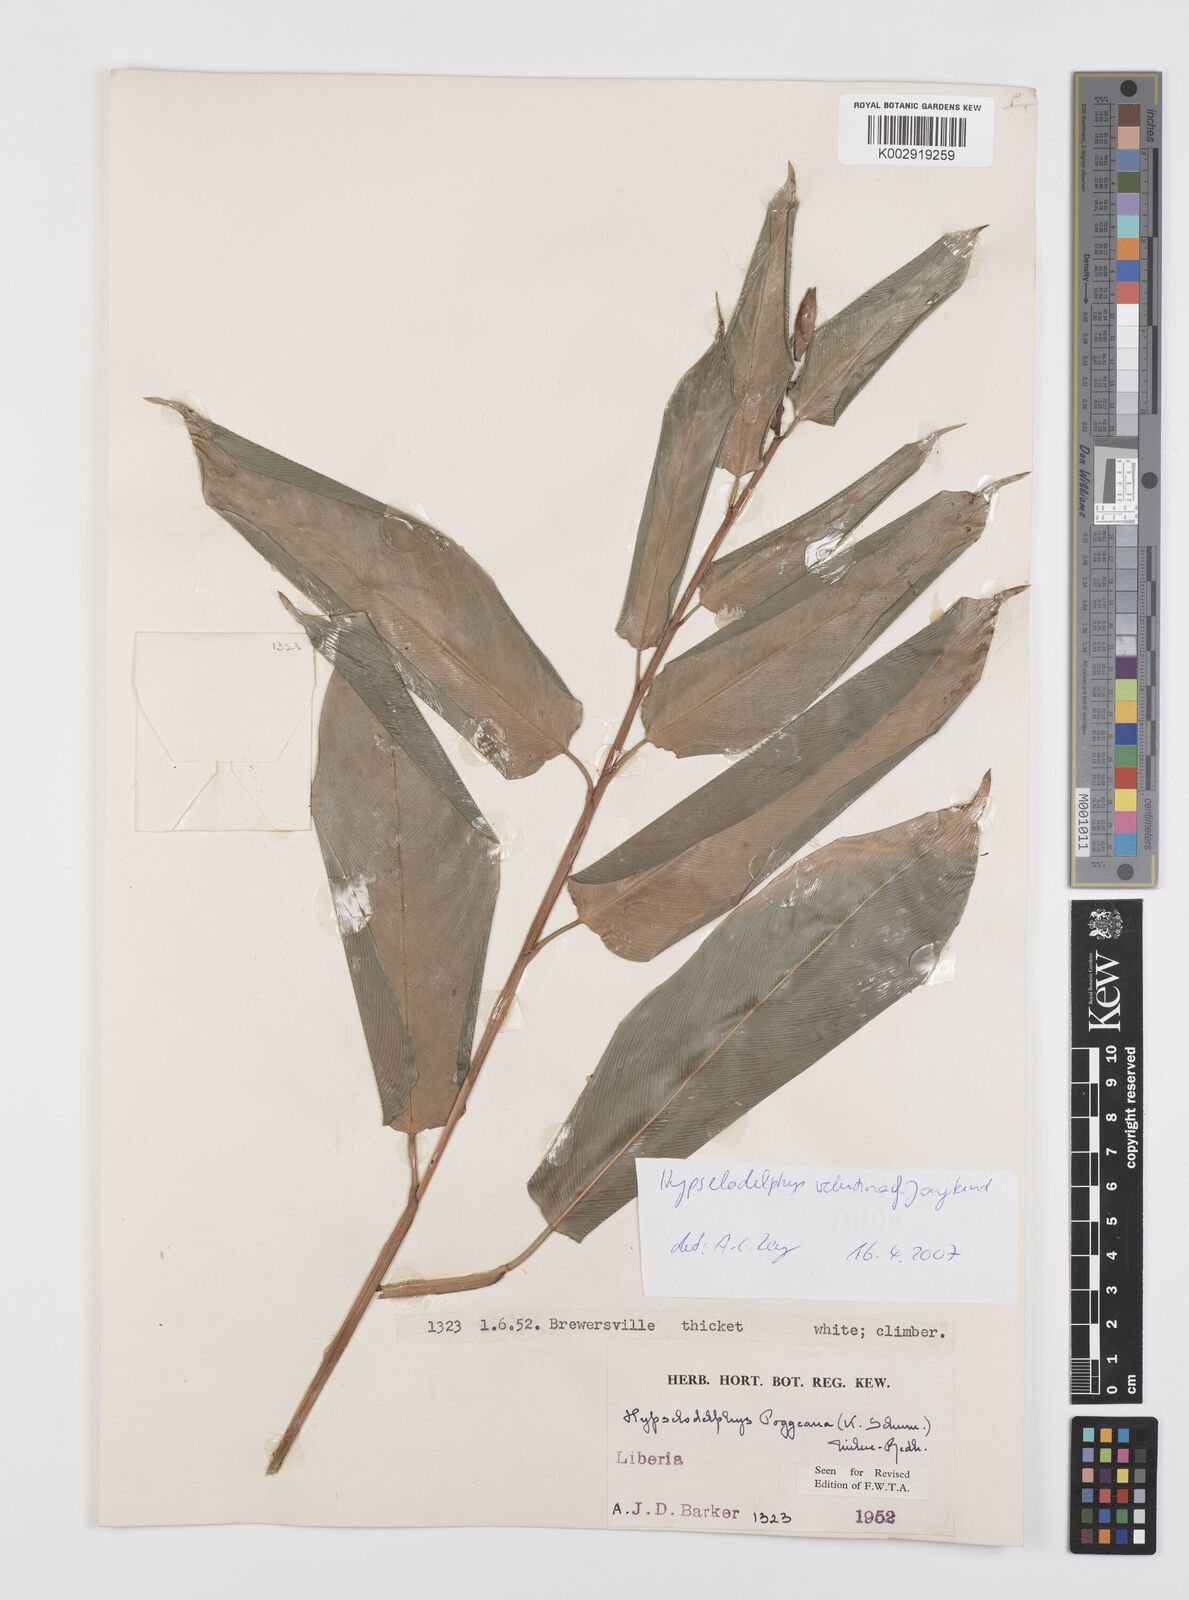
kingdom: Plantae
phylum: Tracheophyta
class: Liliopsida
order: Zingiberales
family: Marantaceae
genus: Hypselodelphys
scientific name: Hypselodelphys velutina
